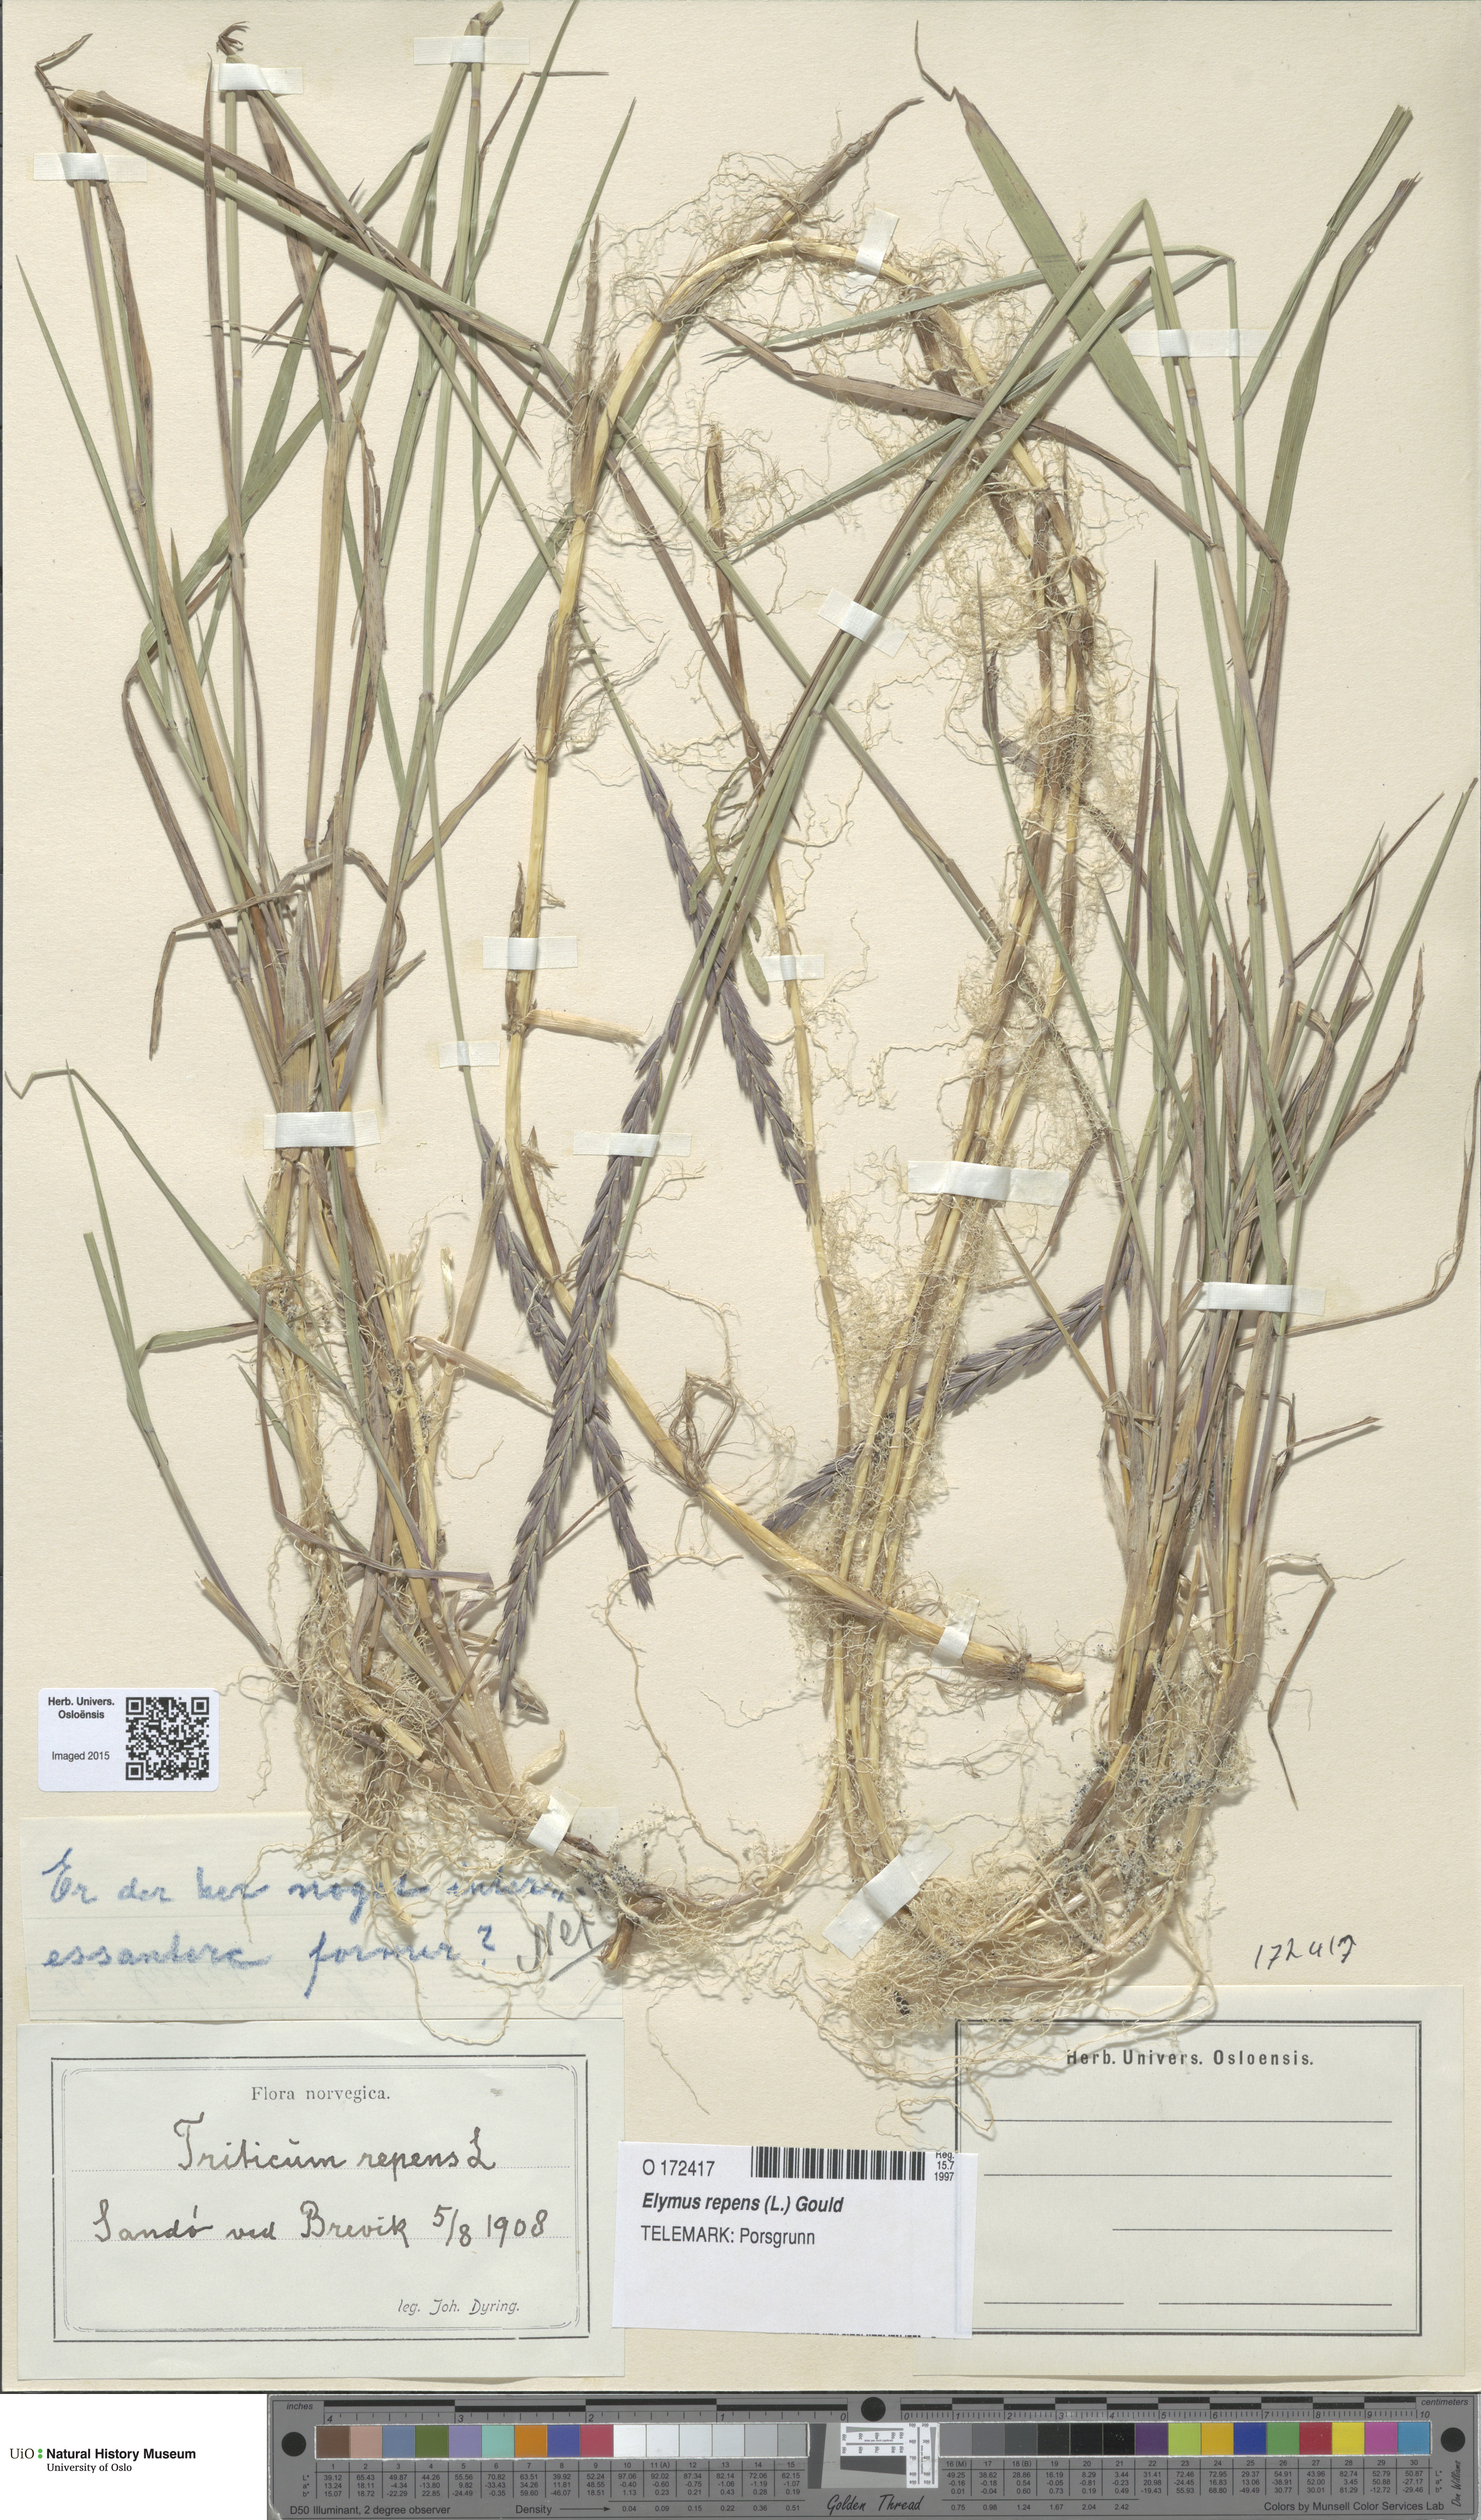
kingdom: Plantae
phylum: Tracheophyta
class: Liliopsida
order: Poales
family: Poaceae
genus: Elymus
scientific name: Elymus repens
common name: Quackgrass
